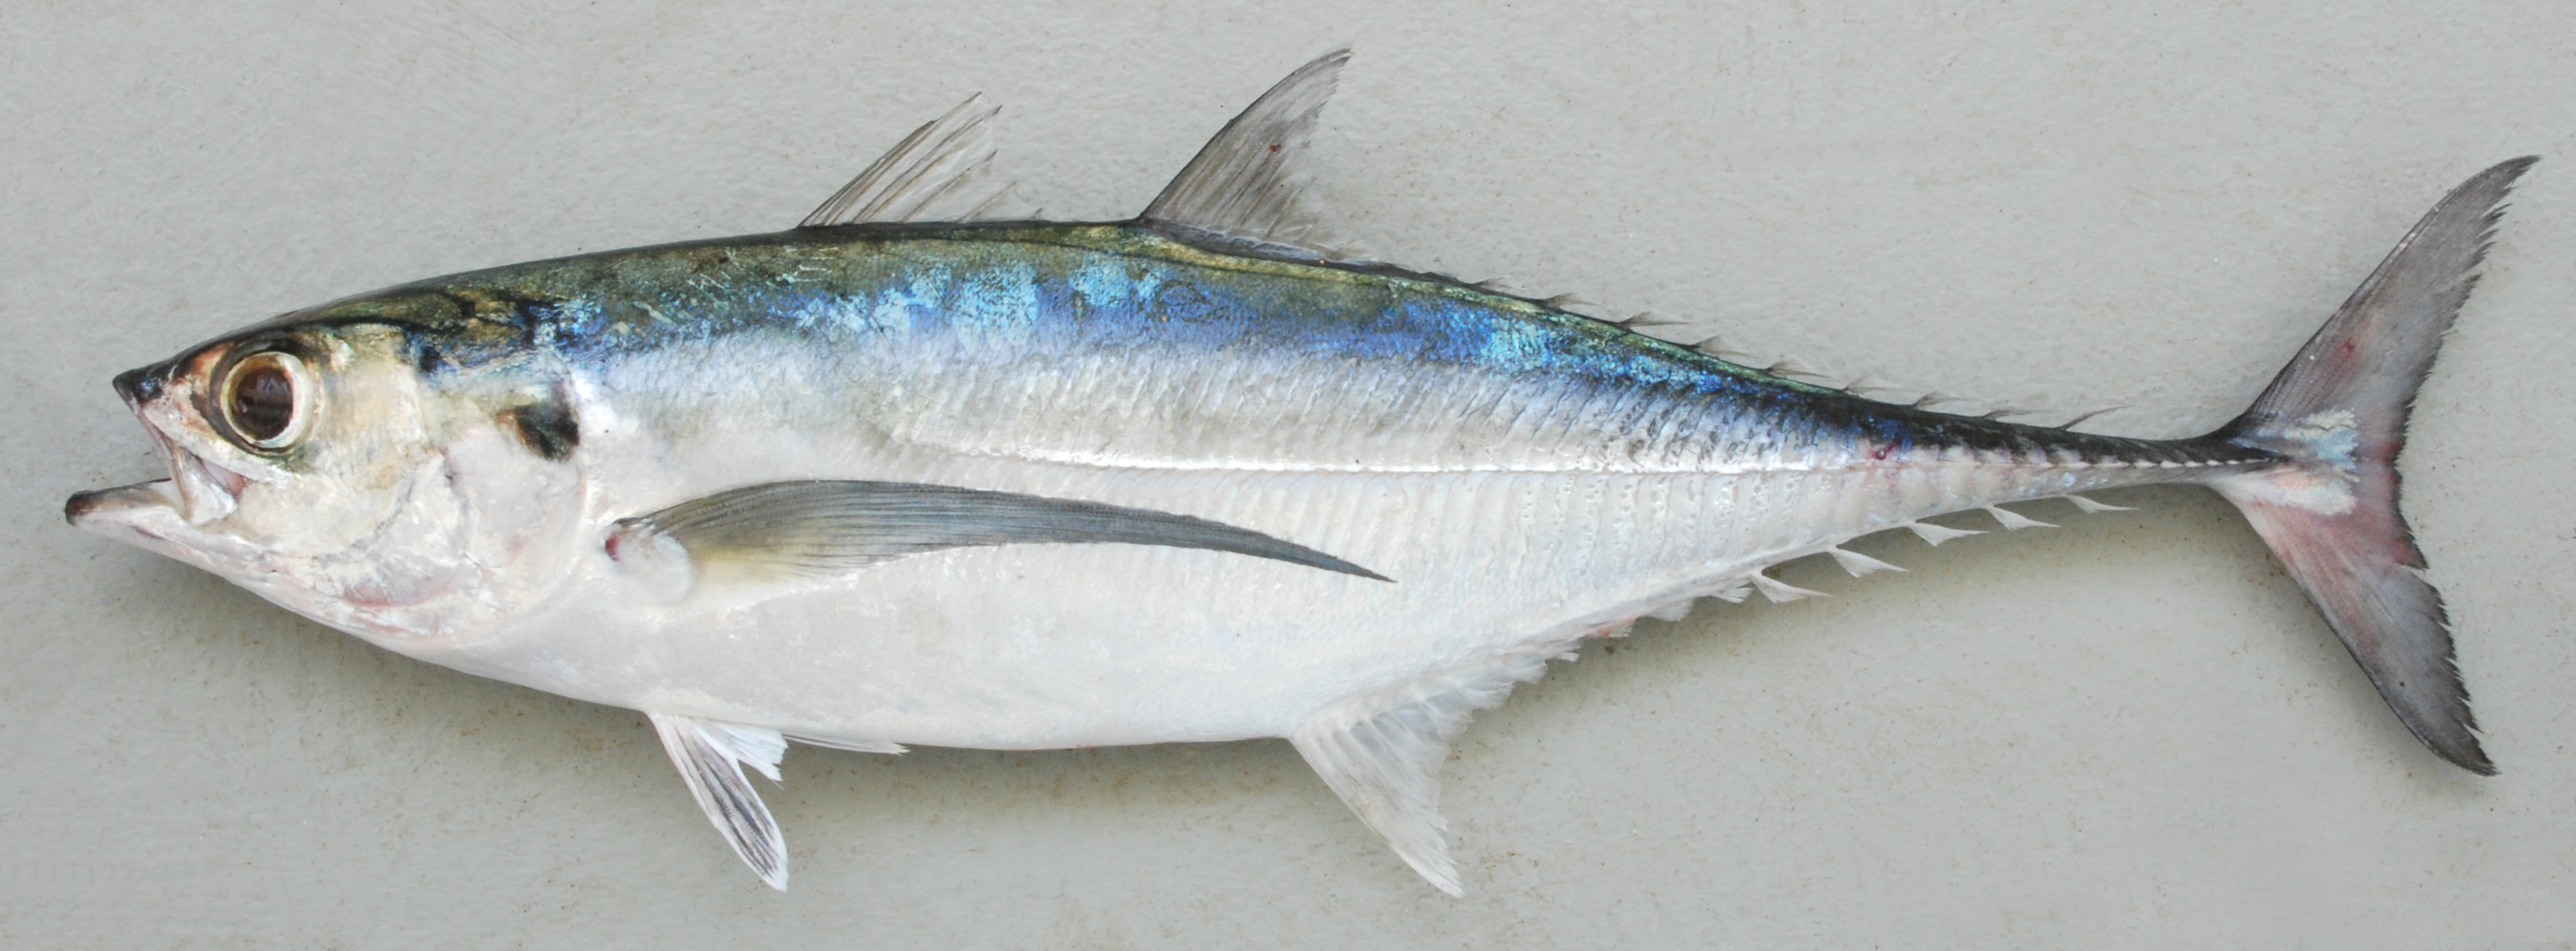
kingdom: Animalia
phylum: Chordata
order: Perciformes
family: Carangidae
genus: Megalaspis
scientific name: Megalaspis cordyla
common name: Torpedo scad
